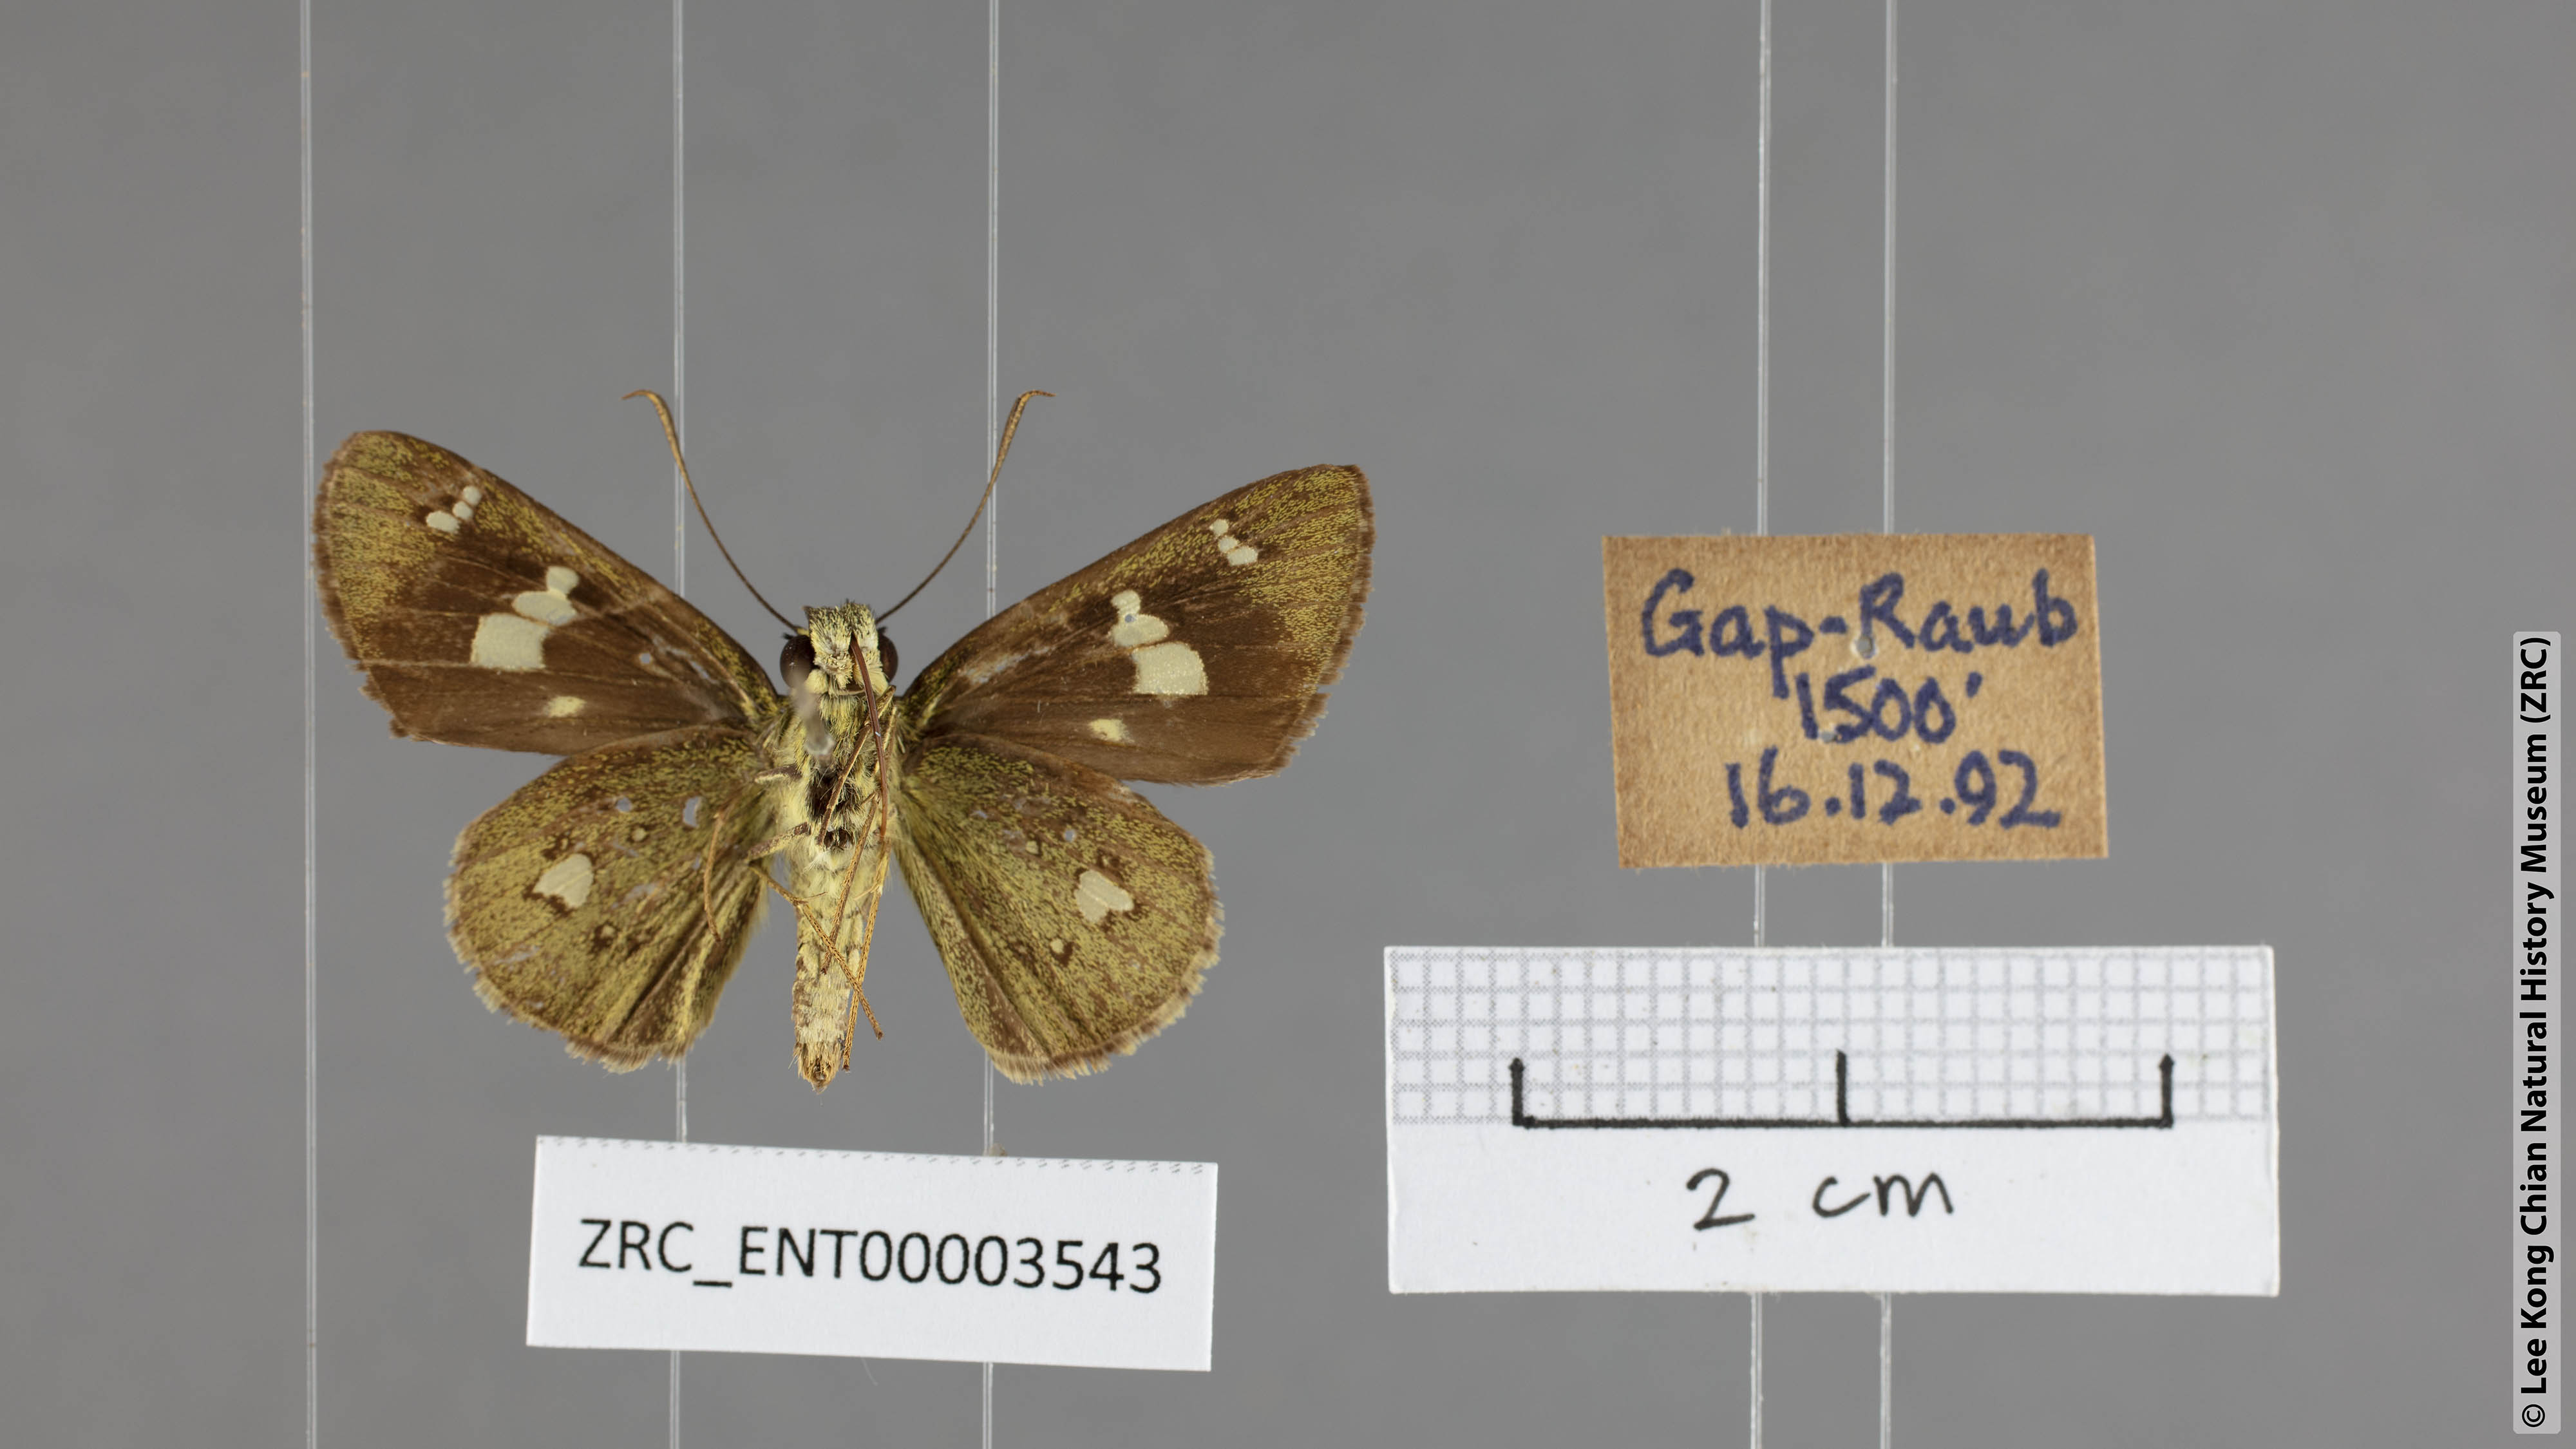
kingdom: Animalia
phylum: Arthropoda
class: Insecta
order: Lepidoptera
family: Hesperiidae
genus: Scobura
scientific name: Scobura phiditia
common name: Malay forest bob
